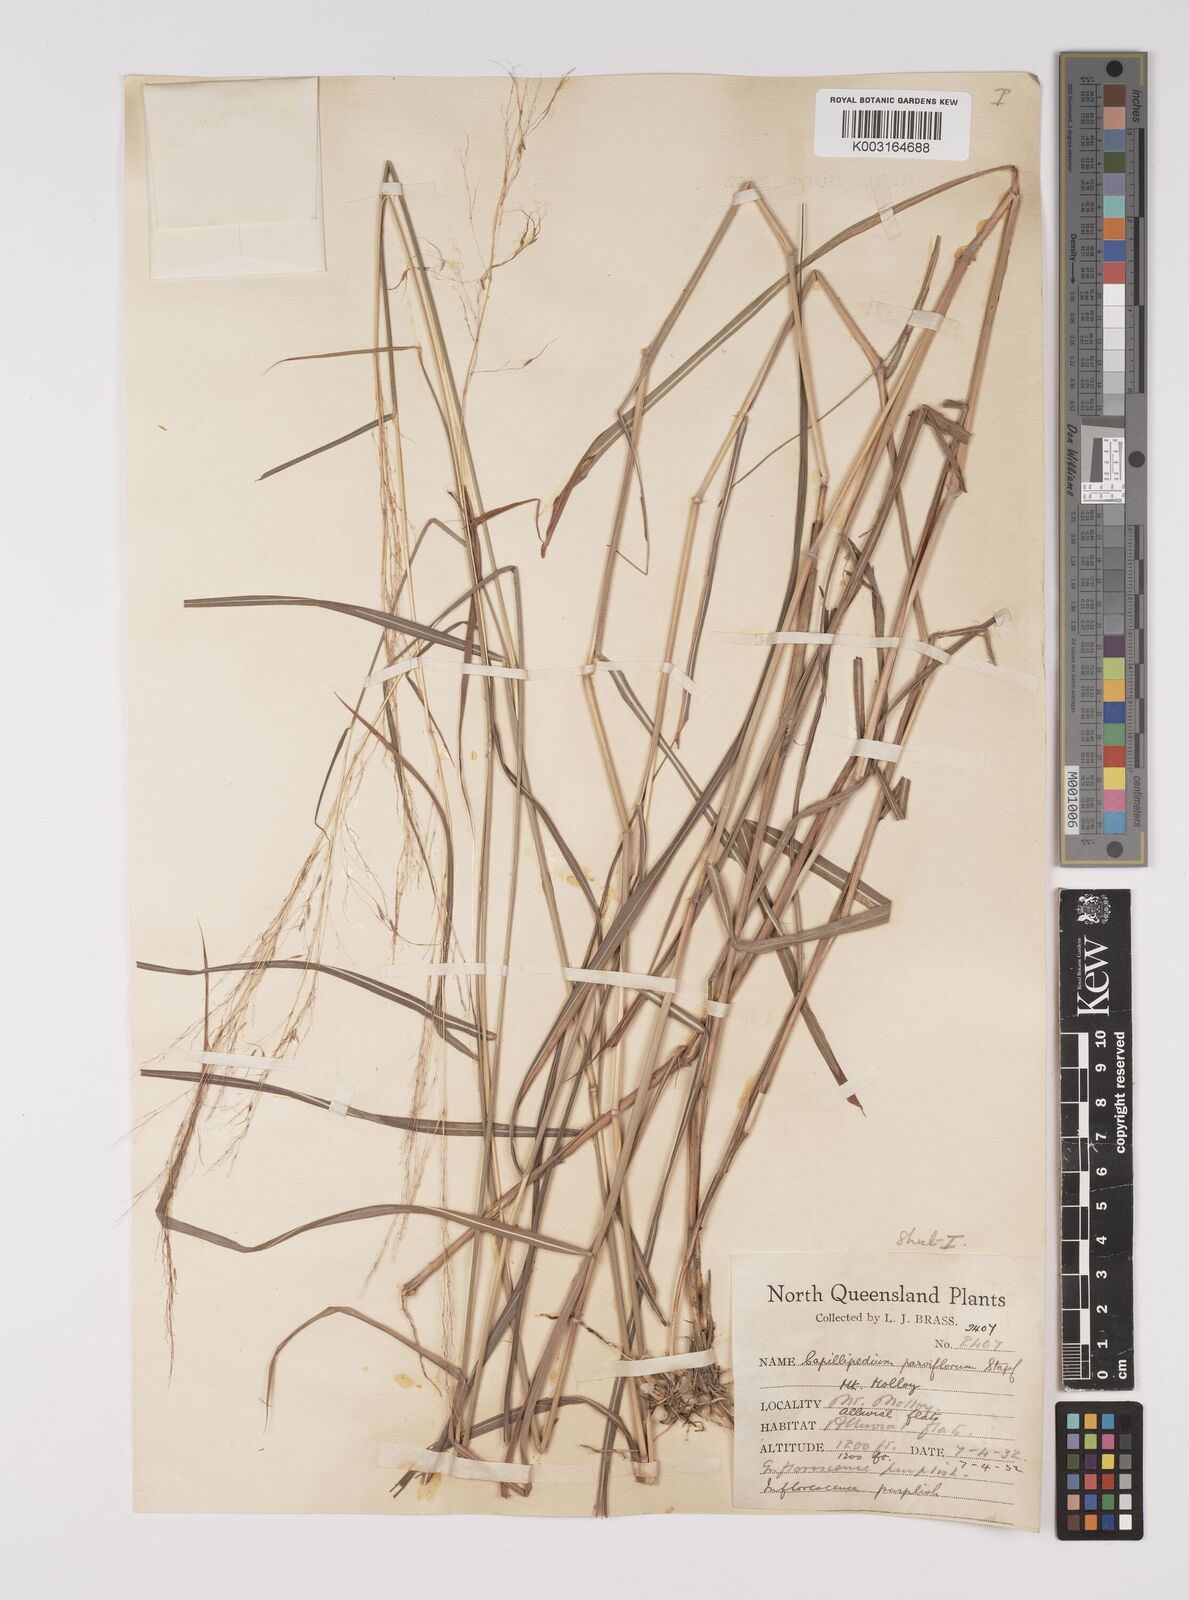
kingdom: Plantae
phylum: Tracheophyta
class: Liliopsida
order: Poales
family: Poaceae
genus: Capillipedium
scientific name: Capillipedium parviflorum
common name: Golden-beard
